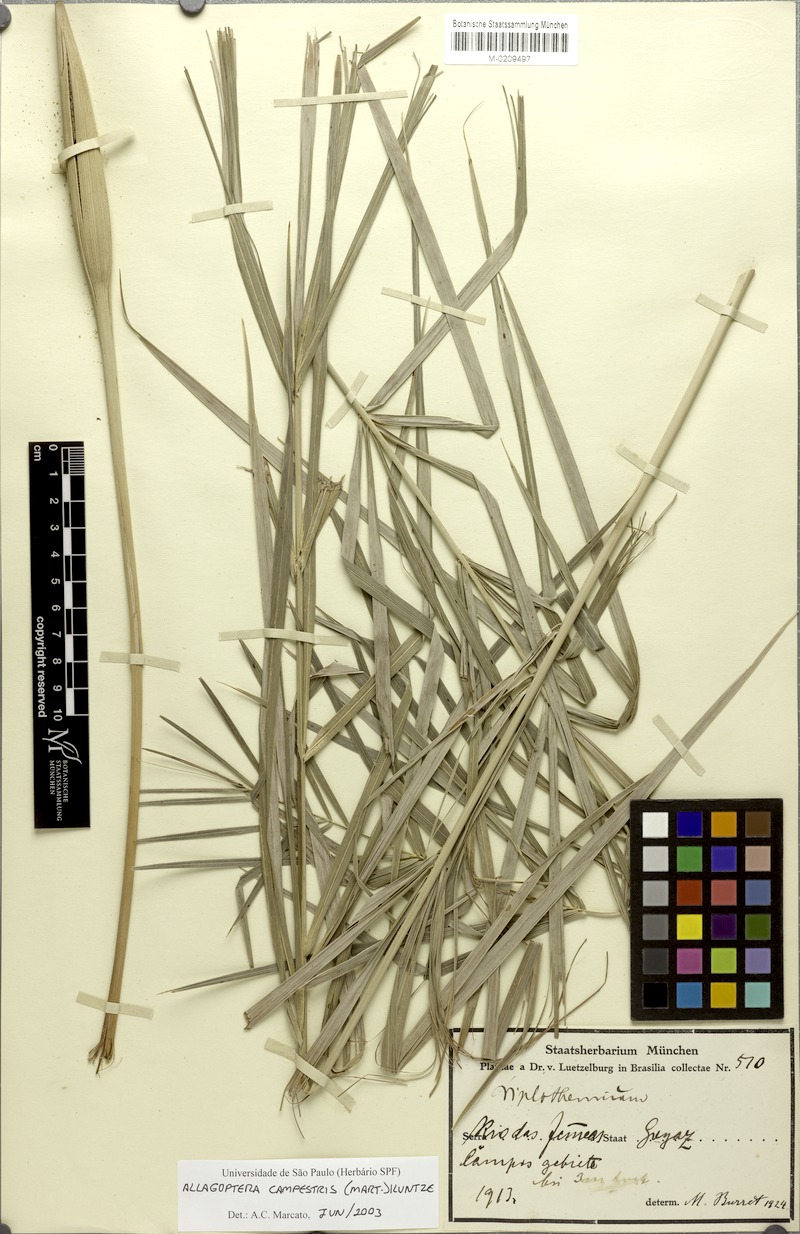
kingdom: Plantae
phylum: Tracheophyta
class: Liliopsida
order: Arecales
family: Arecaceae
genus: Allagoptera
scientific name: Allagoptera campestris
